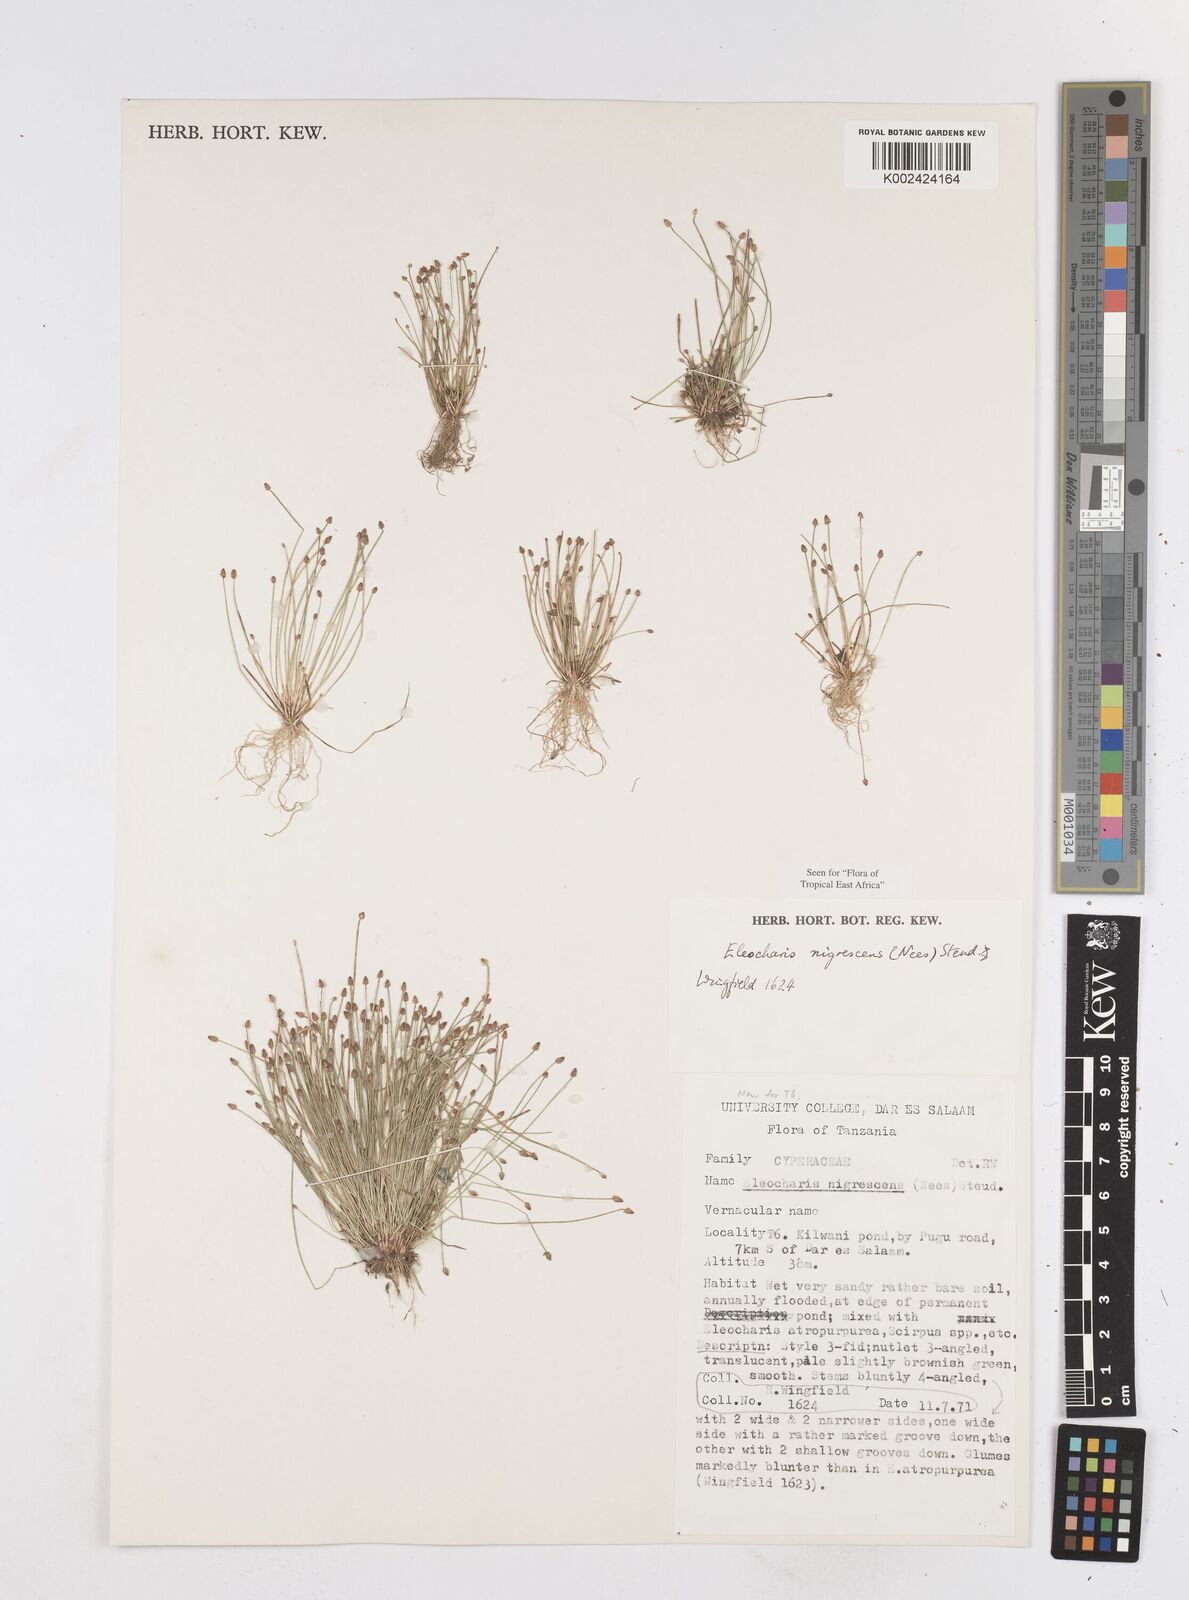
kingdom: Plantae
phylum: Tracheophyta
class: Liliopsida
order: Poales
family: Cyperaceae
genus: Eleocharis
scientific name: Eleocharis nigrescens
